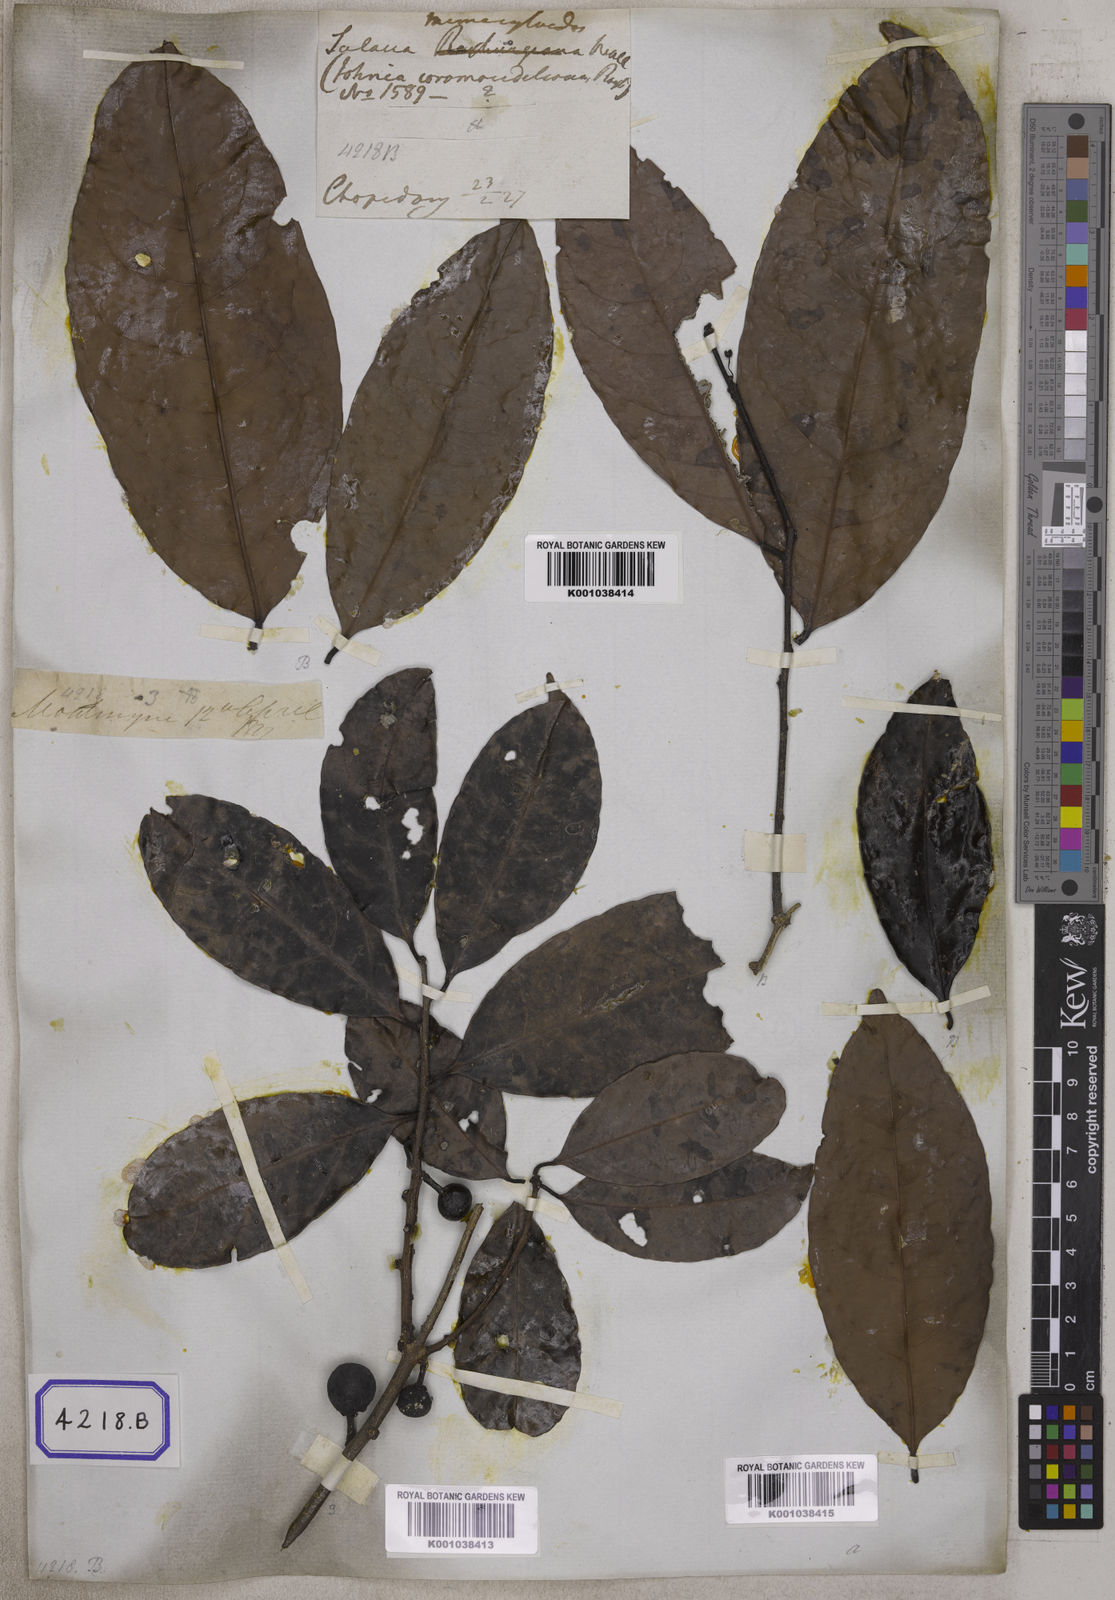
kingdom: Plantae
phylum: Tracheophyta
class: Magnoliopsida
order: Celastrales
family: Celastraceae
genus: Salacia
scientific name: Salacia verrucosa
